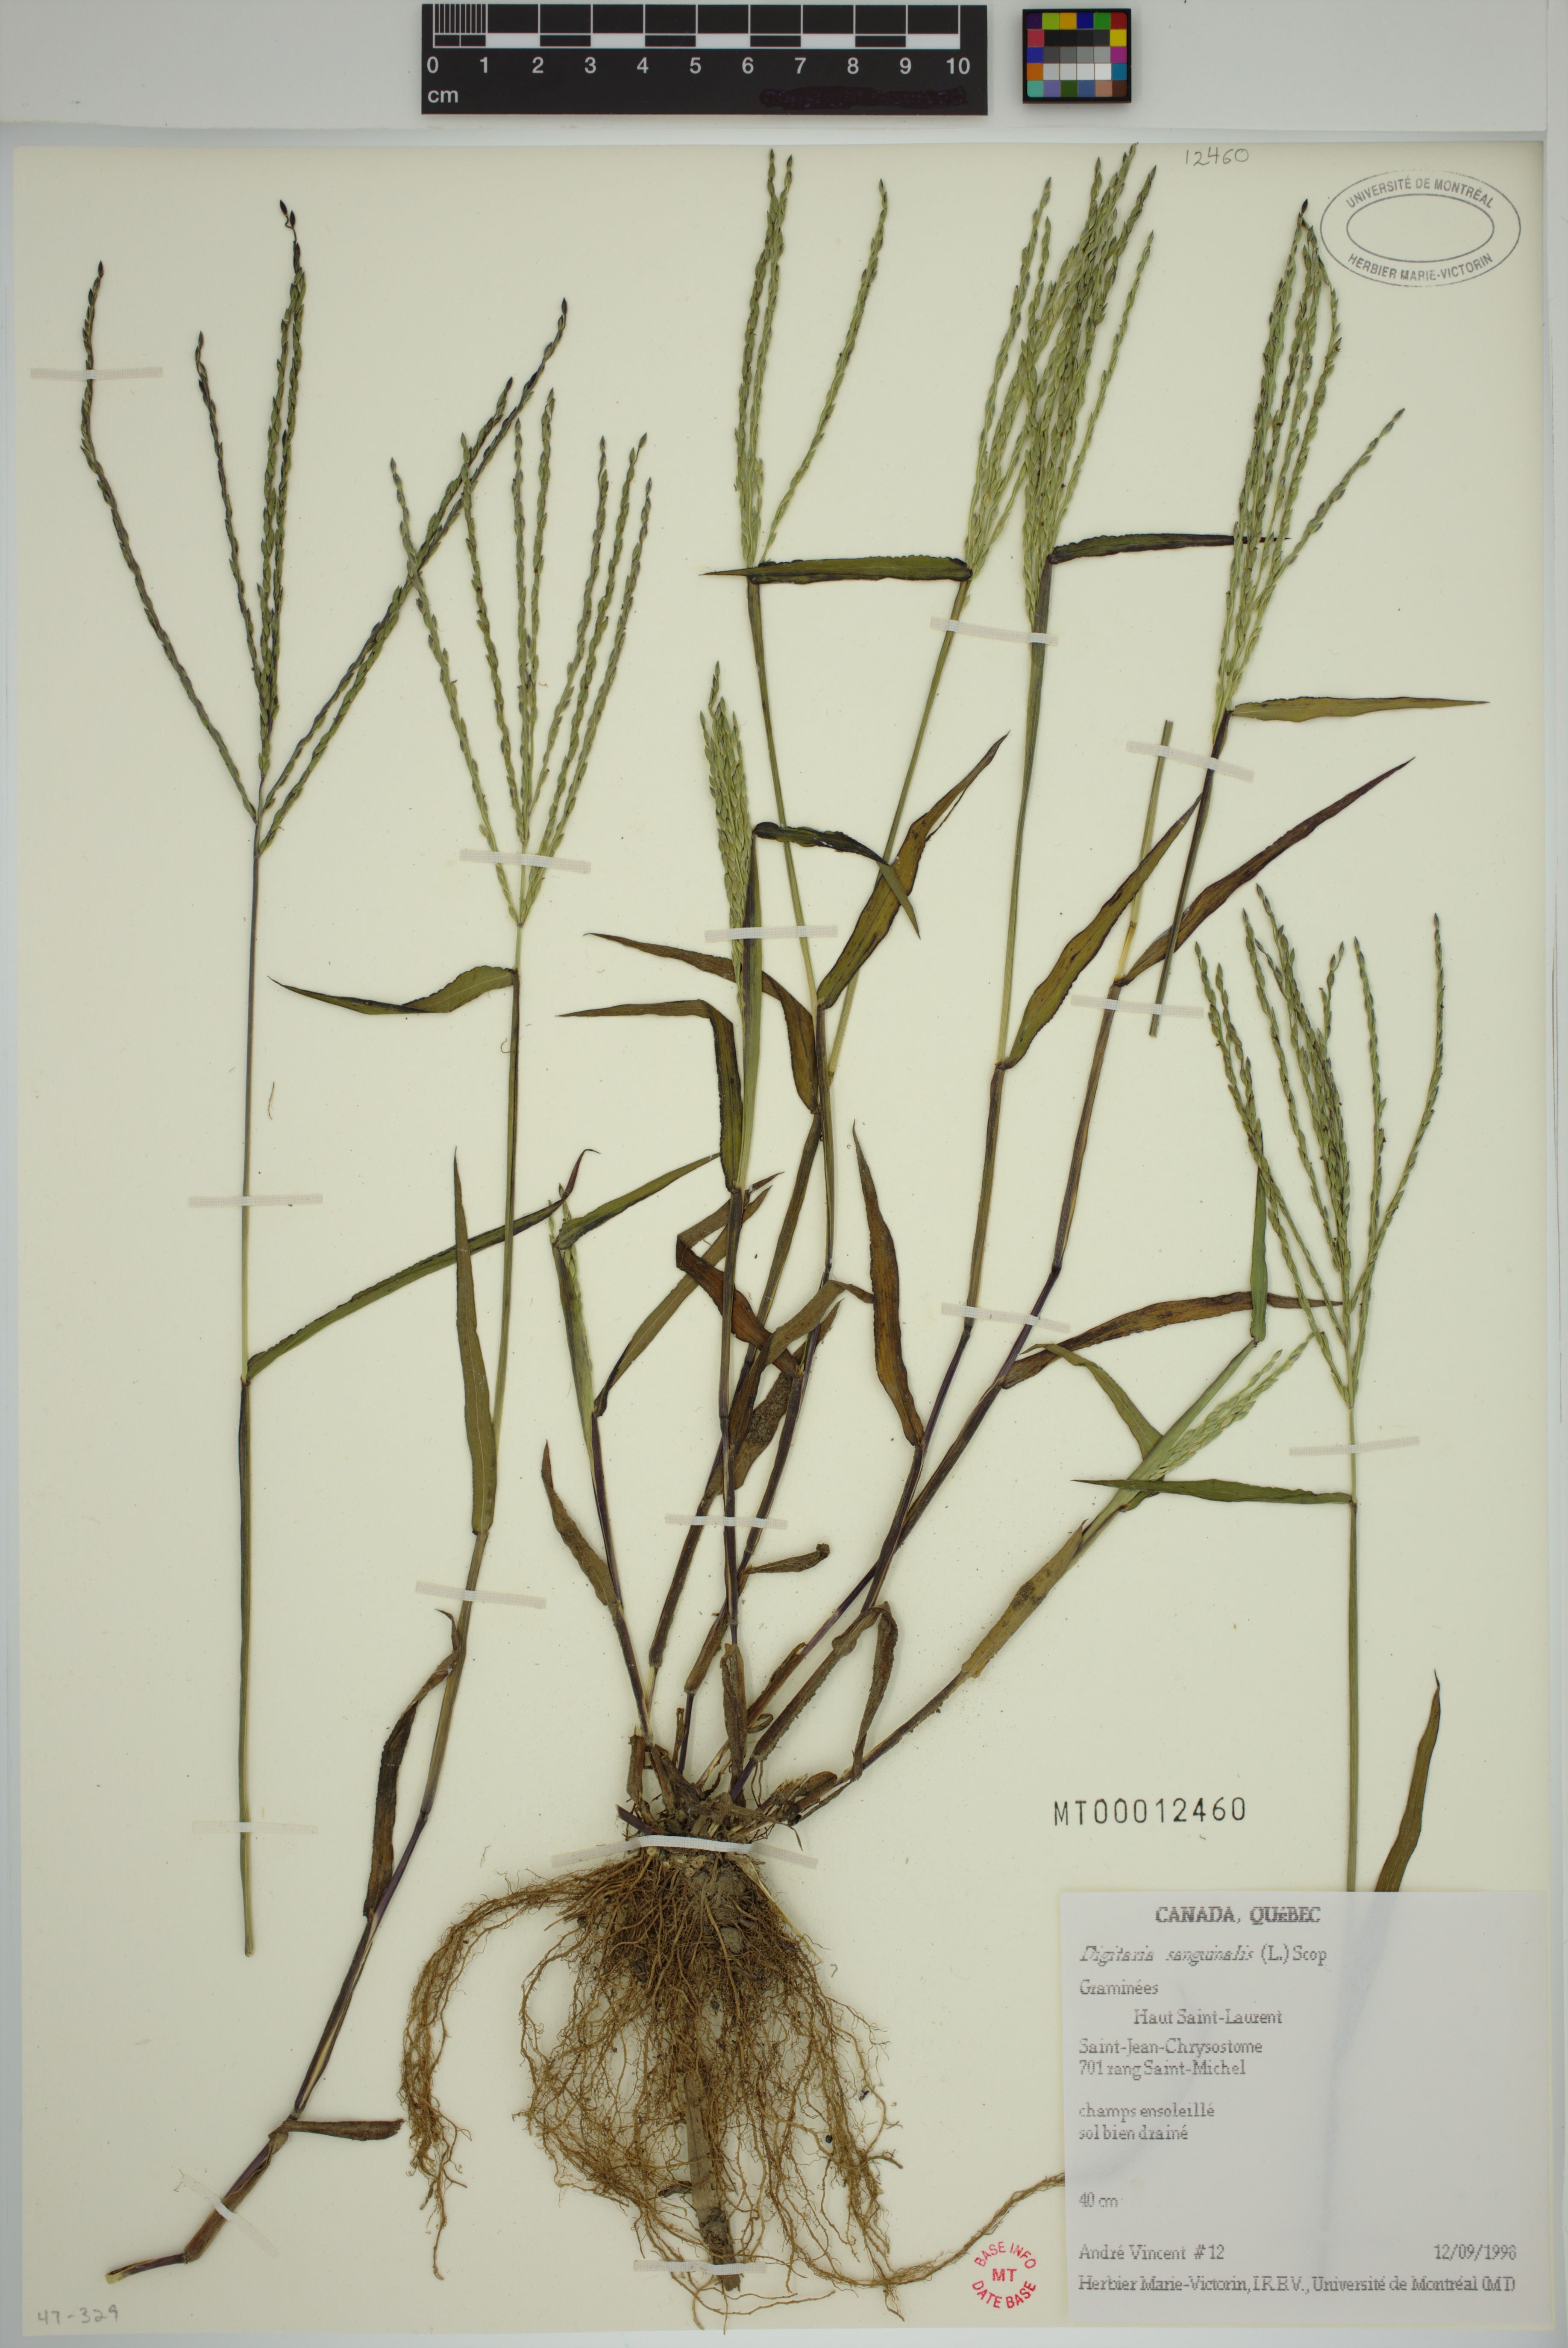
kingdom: Plantae
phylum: Tracheophyta
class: Liliopsida
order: Poales
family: Poaceae
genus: Digitaria
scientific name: Digitaria sanguinalis
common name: Hairy crabgrass
